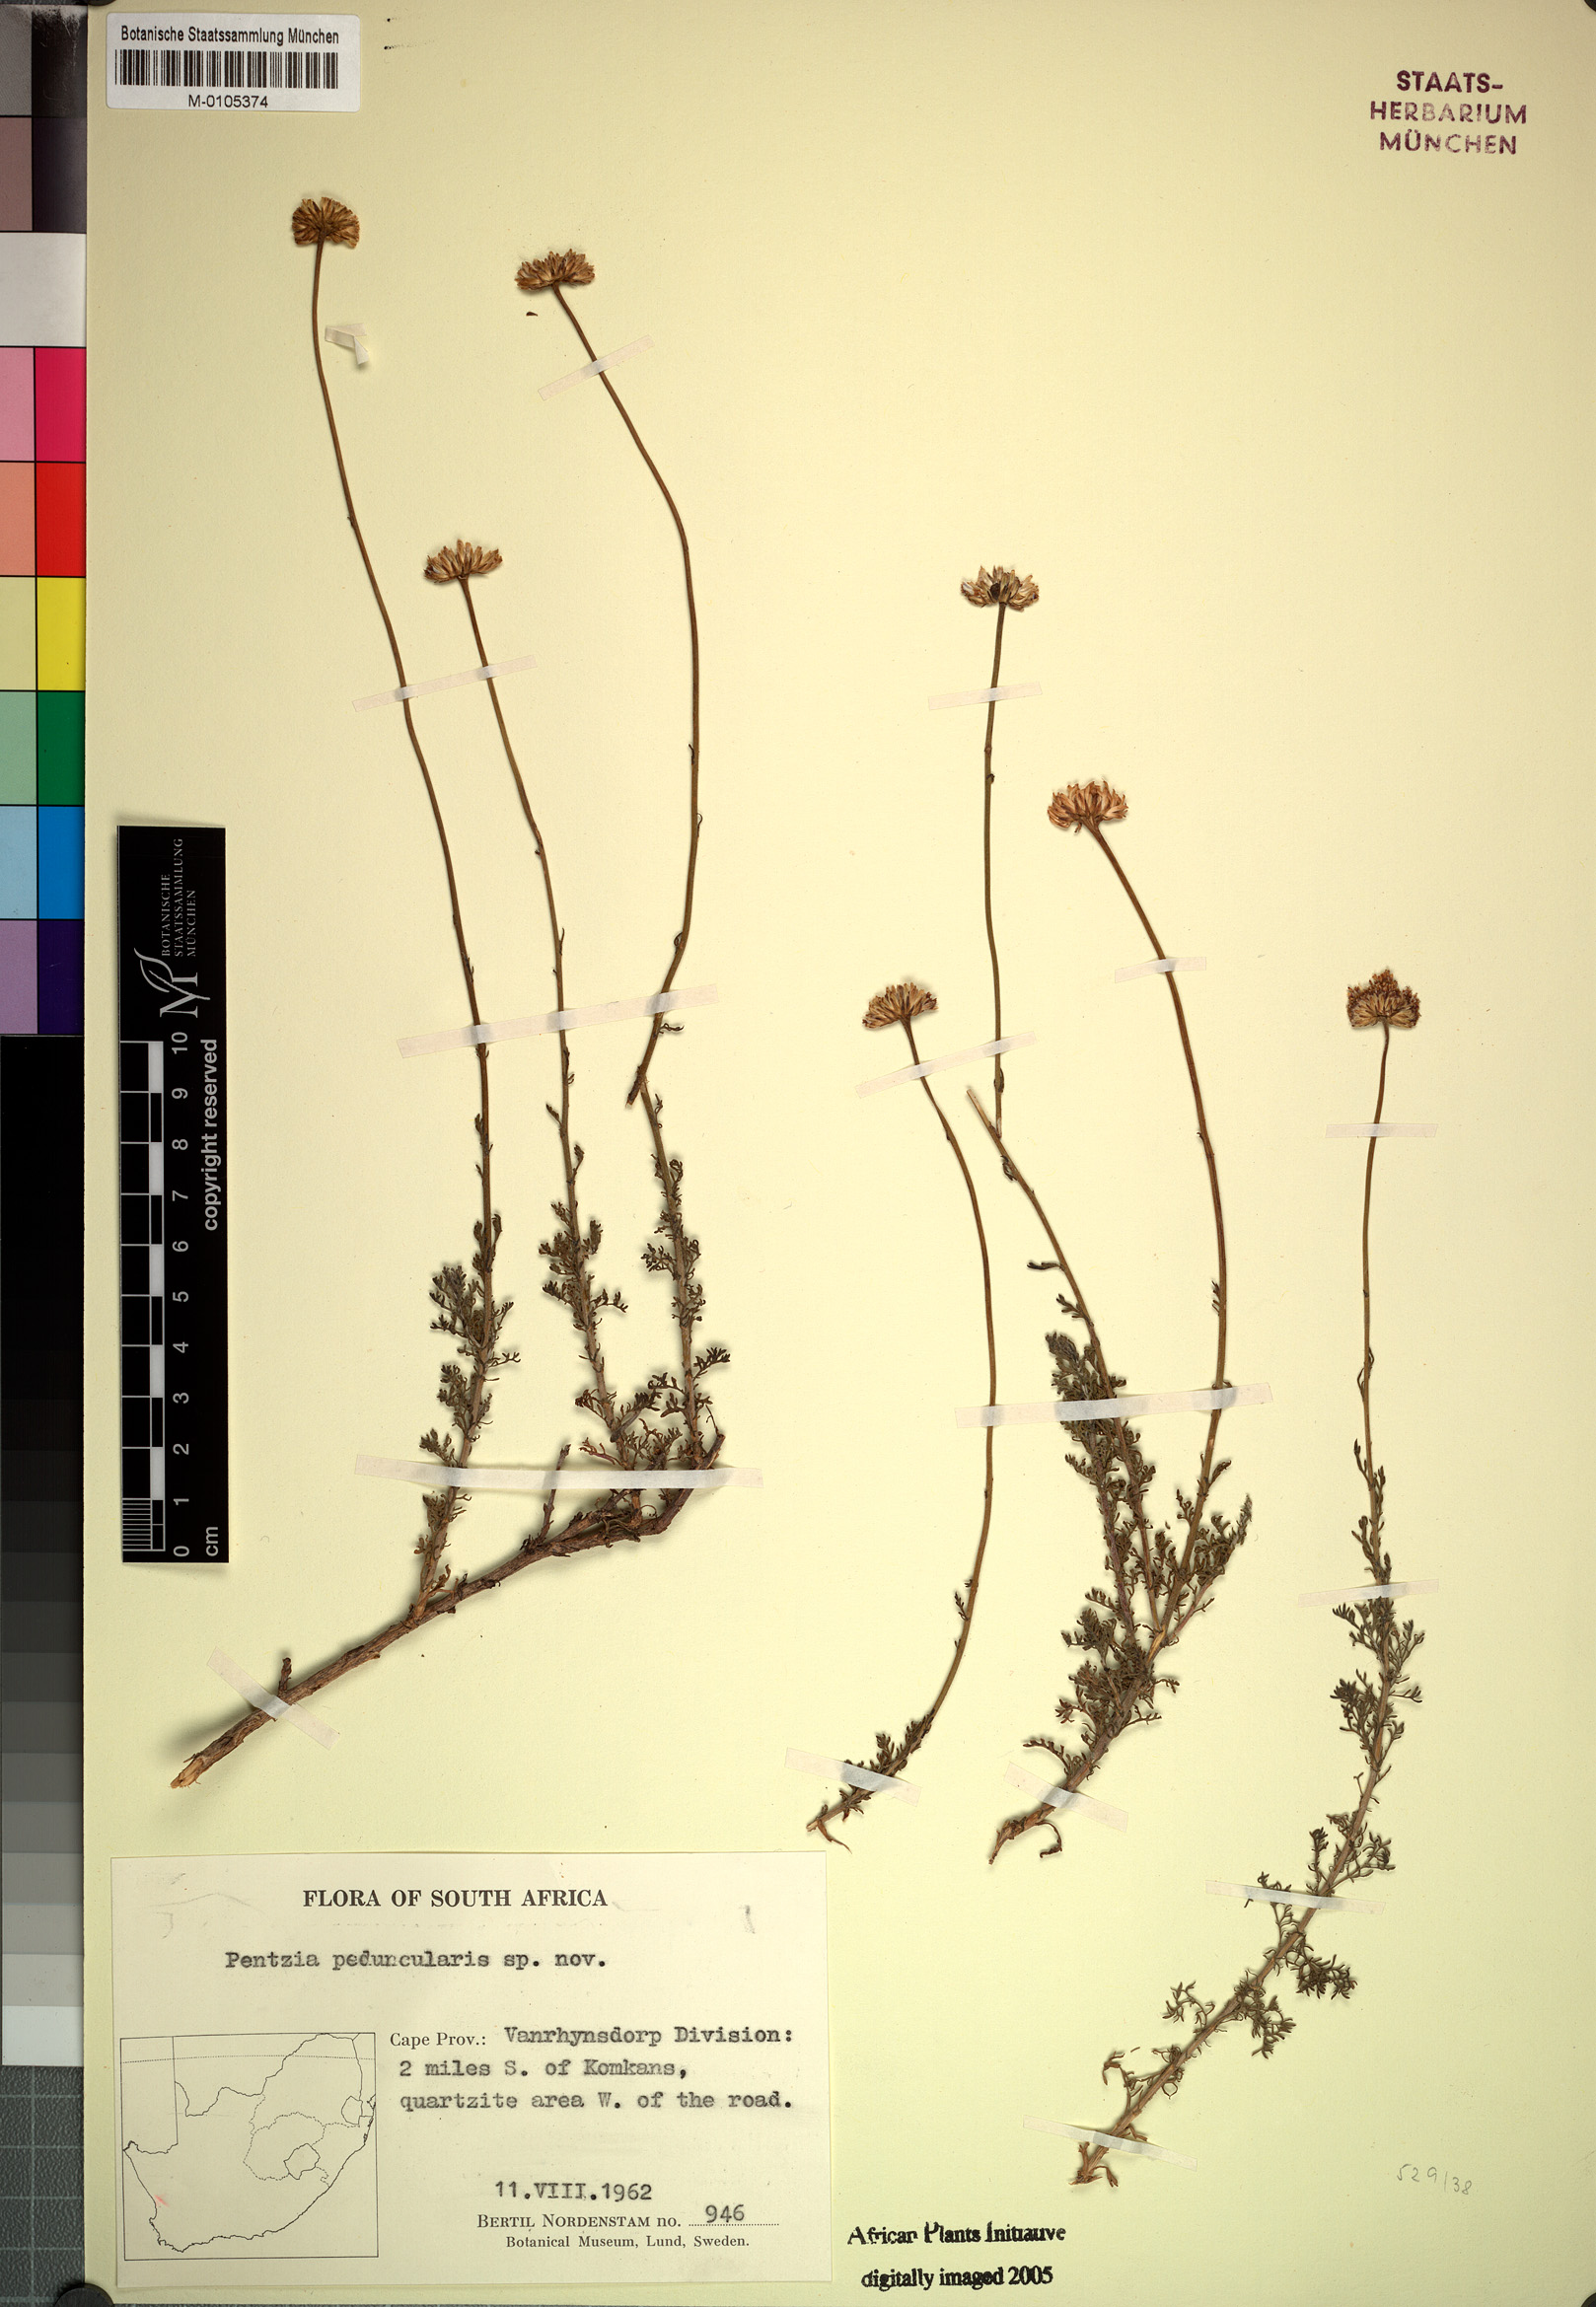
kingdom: Plantae
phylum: Tracheophyta
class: Magnoliopsida
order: Asterales
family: Asteraceae
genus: Pentzia
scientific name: Pentzia peduncularis
